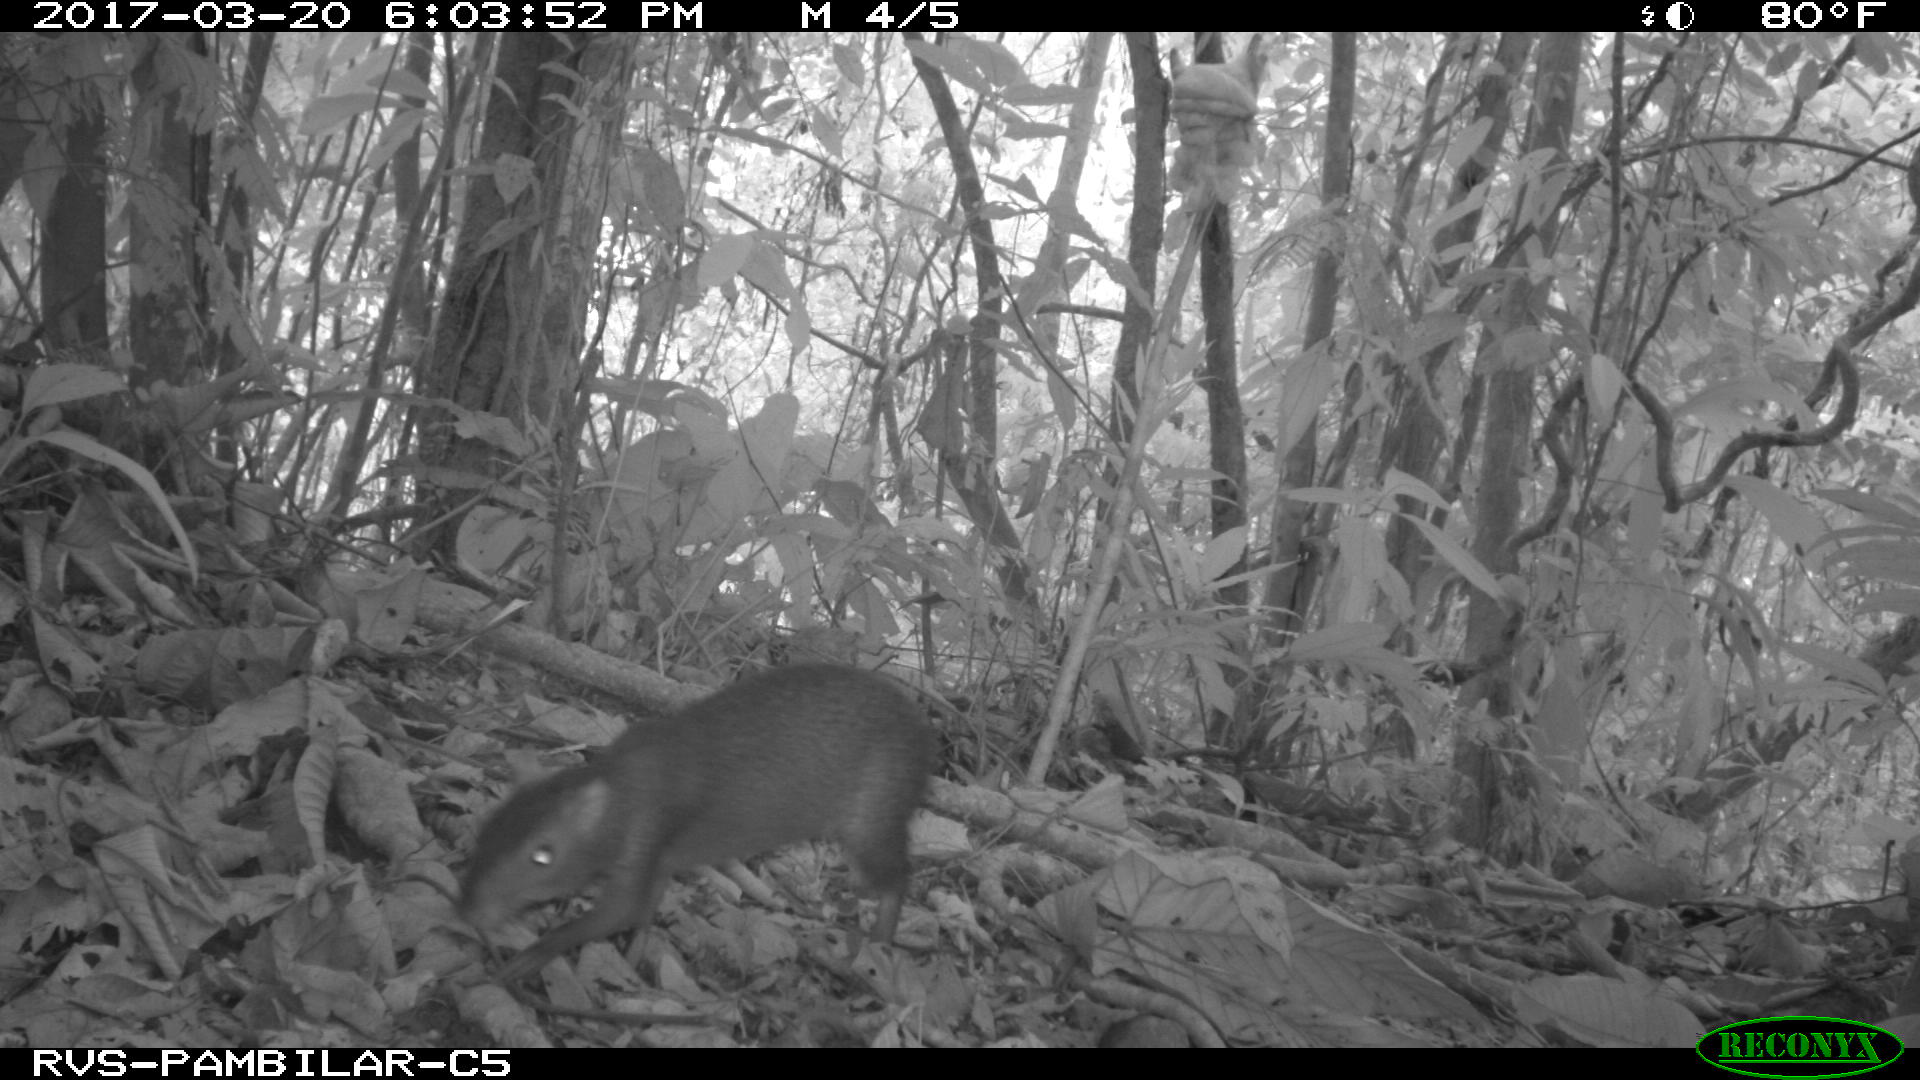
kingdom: Animalia
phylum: Chordata
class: Mammalia
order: Rodentia
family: Dasyproctidae
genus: Dasyprocta
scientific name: Dasyprocta punctata
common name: Central american agouti
